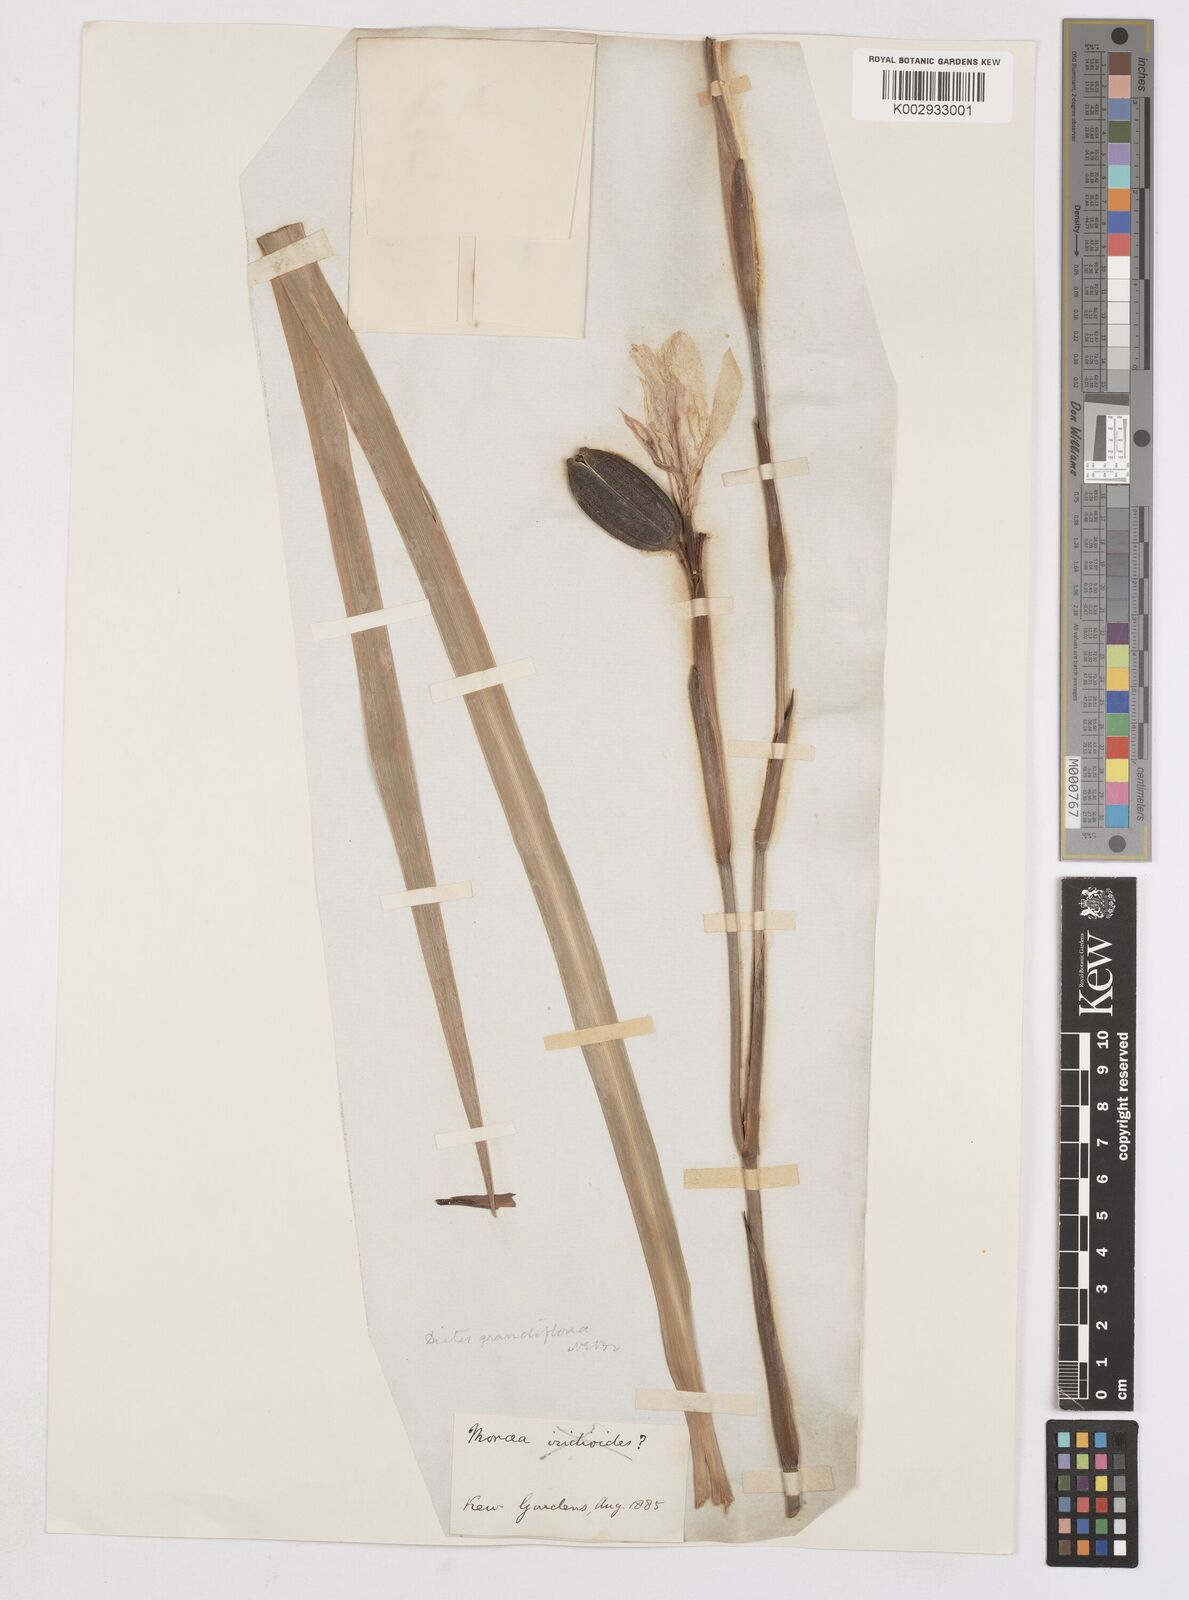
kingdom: Plantae
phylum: Tracheophyta
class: Liliopsida
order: Asparagales
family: Iridaceae
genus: Dietes
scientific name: Dietes grandiflora
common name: Wild iris
